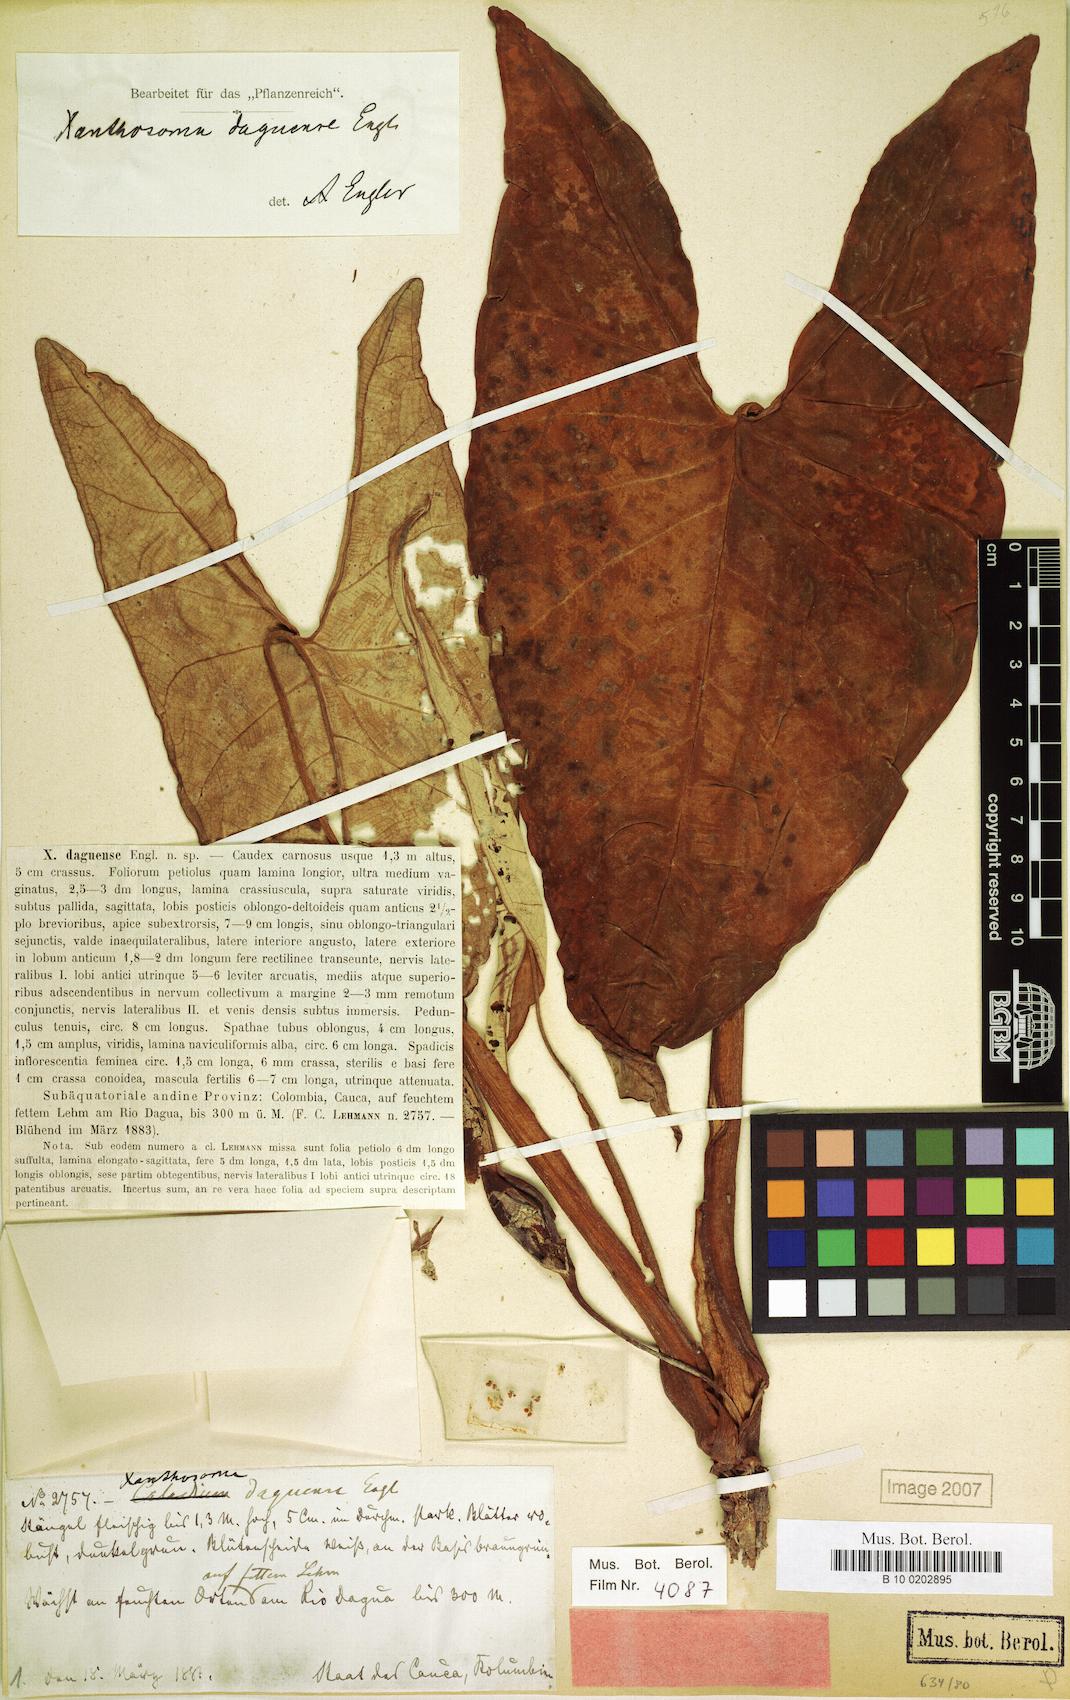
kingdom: Plantae
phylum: Tracheophyta
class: Liliopsida
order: Alismatales
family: Araceae
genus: Xanthosoma
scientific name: Xanthosoma daguense
